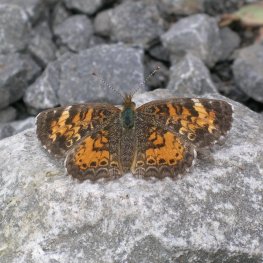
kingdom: Animalia
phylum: Arthropoda
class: Insecta
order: Lepidoptera
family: Nymphalidae
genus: Phyciodes
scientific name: Phyciodes tharos
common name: Northern Crescent
